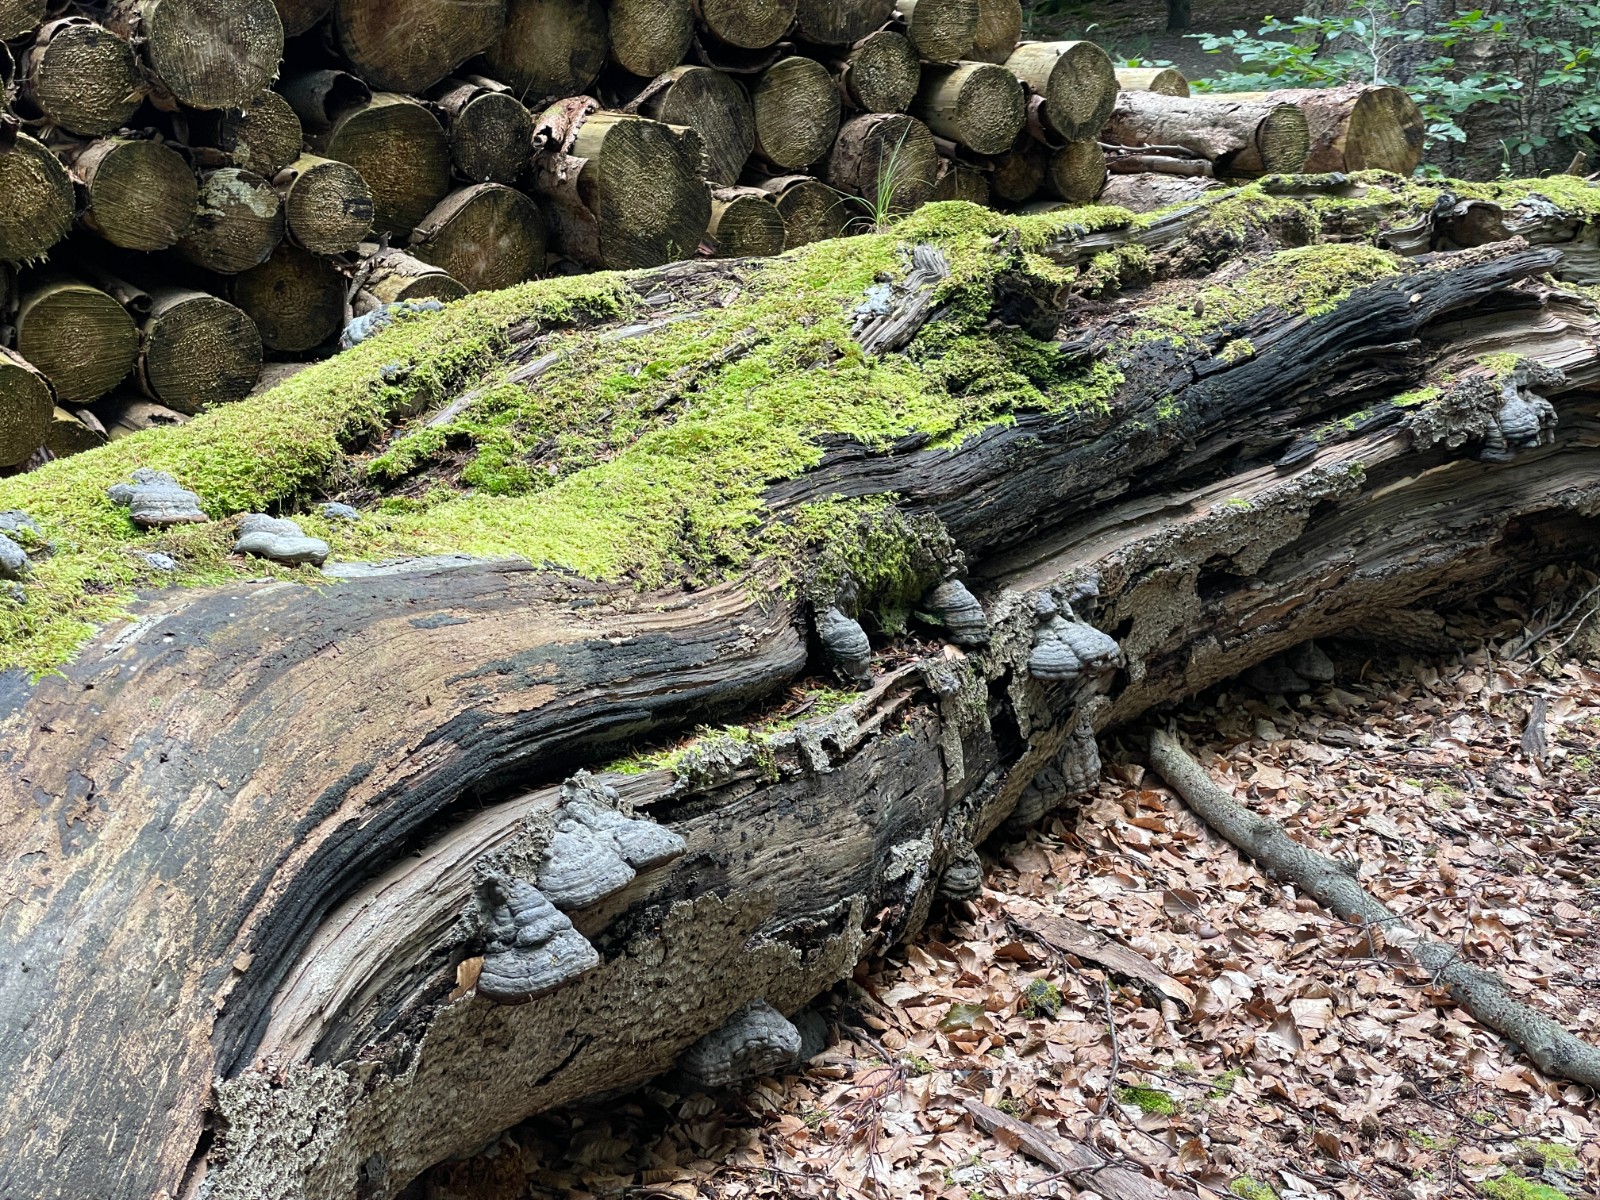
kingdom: Fungi
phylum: Basidiomycota
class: Agaricomycetes
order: Polyporales
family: Polyporaceae
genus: Fomes
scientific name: Fomes fomentarius
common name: tøndersvamp
